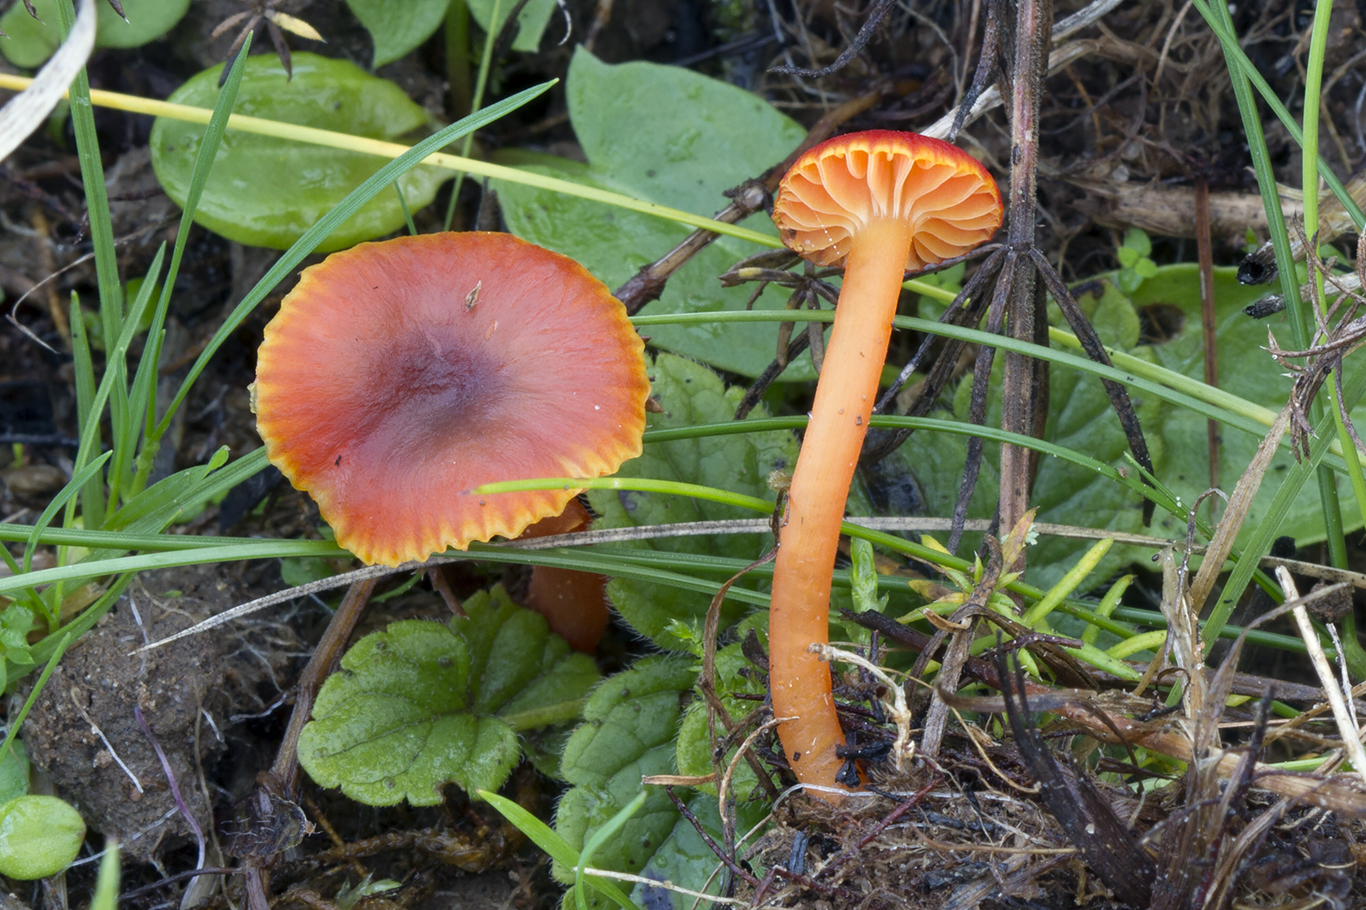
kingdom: Fungi
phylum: Basidiomycota
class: Agaricomycetes
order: Agaricales
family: Hygrophoraceae
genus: Hygrocybe
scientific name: Hygrocybe phaeococcinea
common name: sortdugget vokshat
